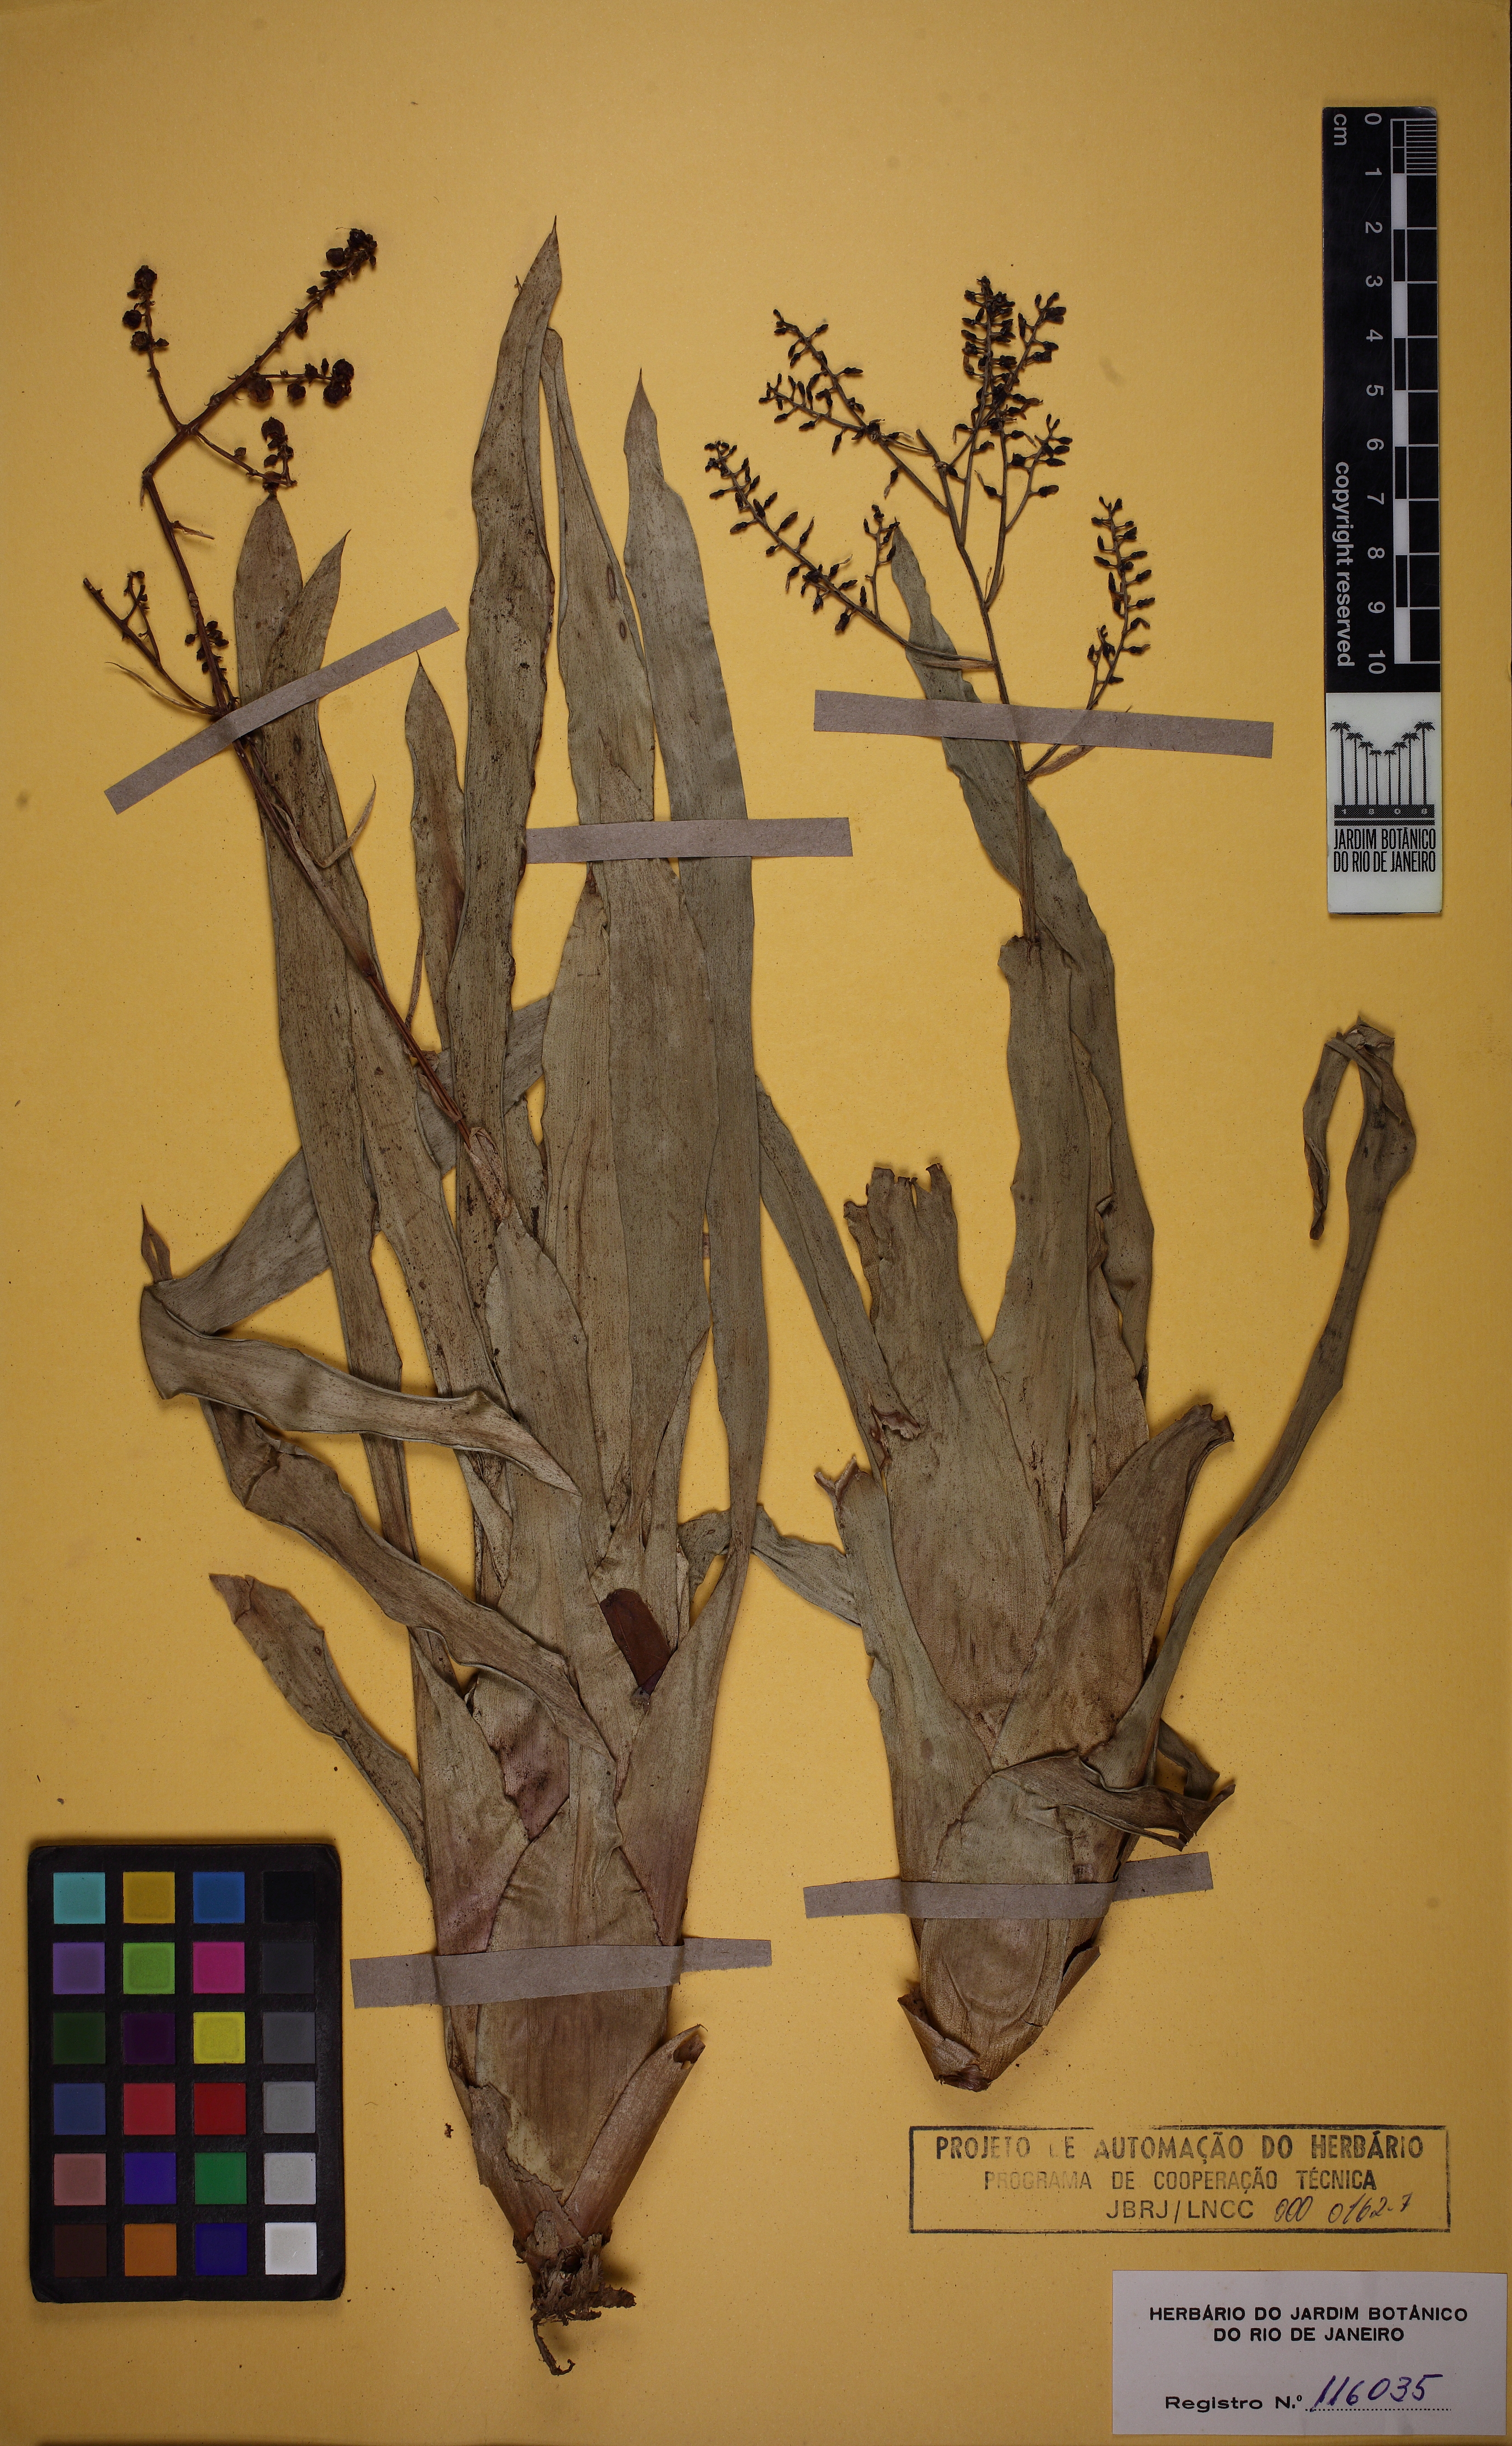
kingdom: Plantae
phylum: Tracheophyta
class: Liliopsida
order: Poales
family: Bromeliaceae
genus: Pseudaraeococcus
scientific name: Pseudaraeococcus parviflorus
